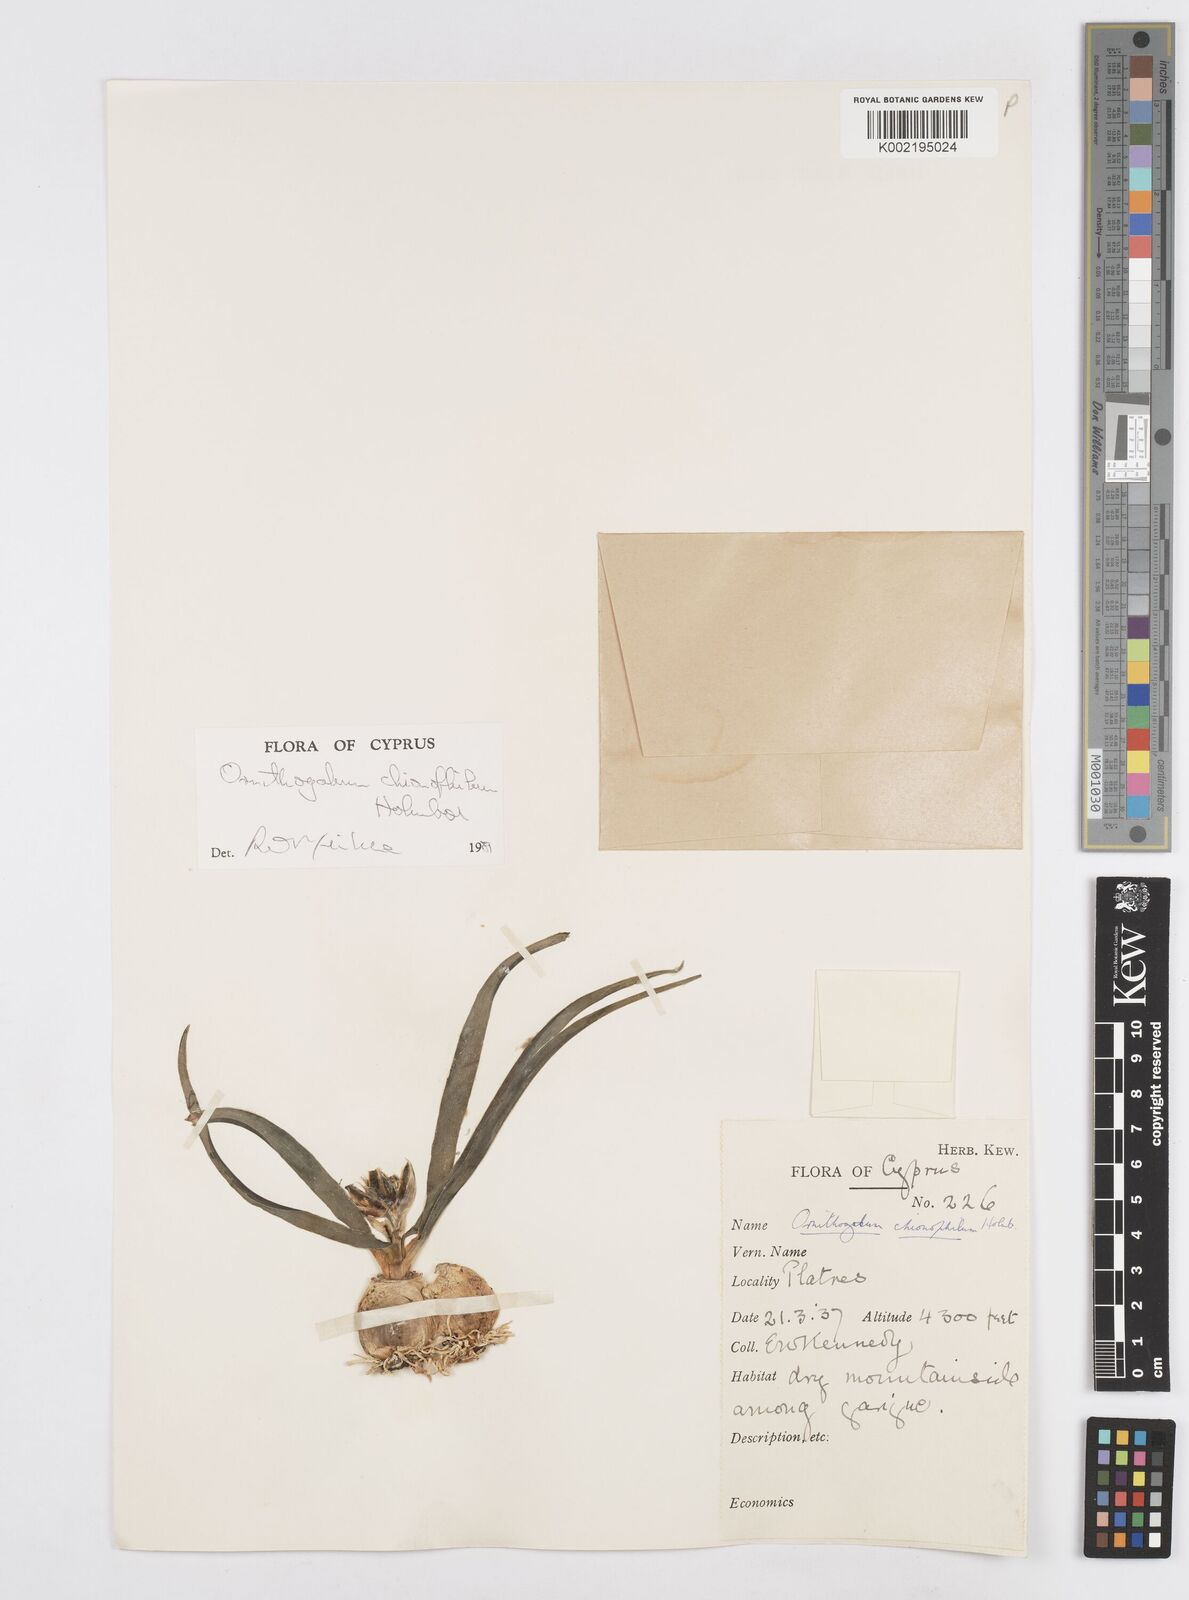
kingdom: Plantae
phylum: Tracheophyta
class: Liliopsida
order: Asparagales
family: Asparagaceae
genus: Ornithogalum
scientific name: Ornithogalum chionophilum
